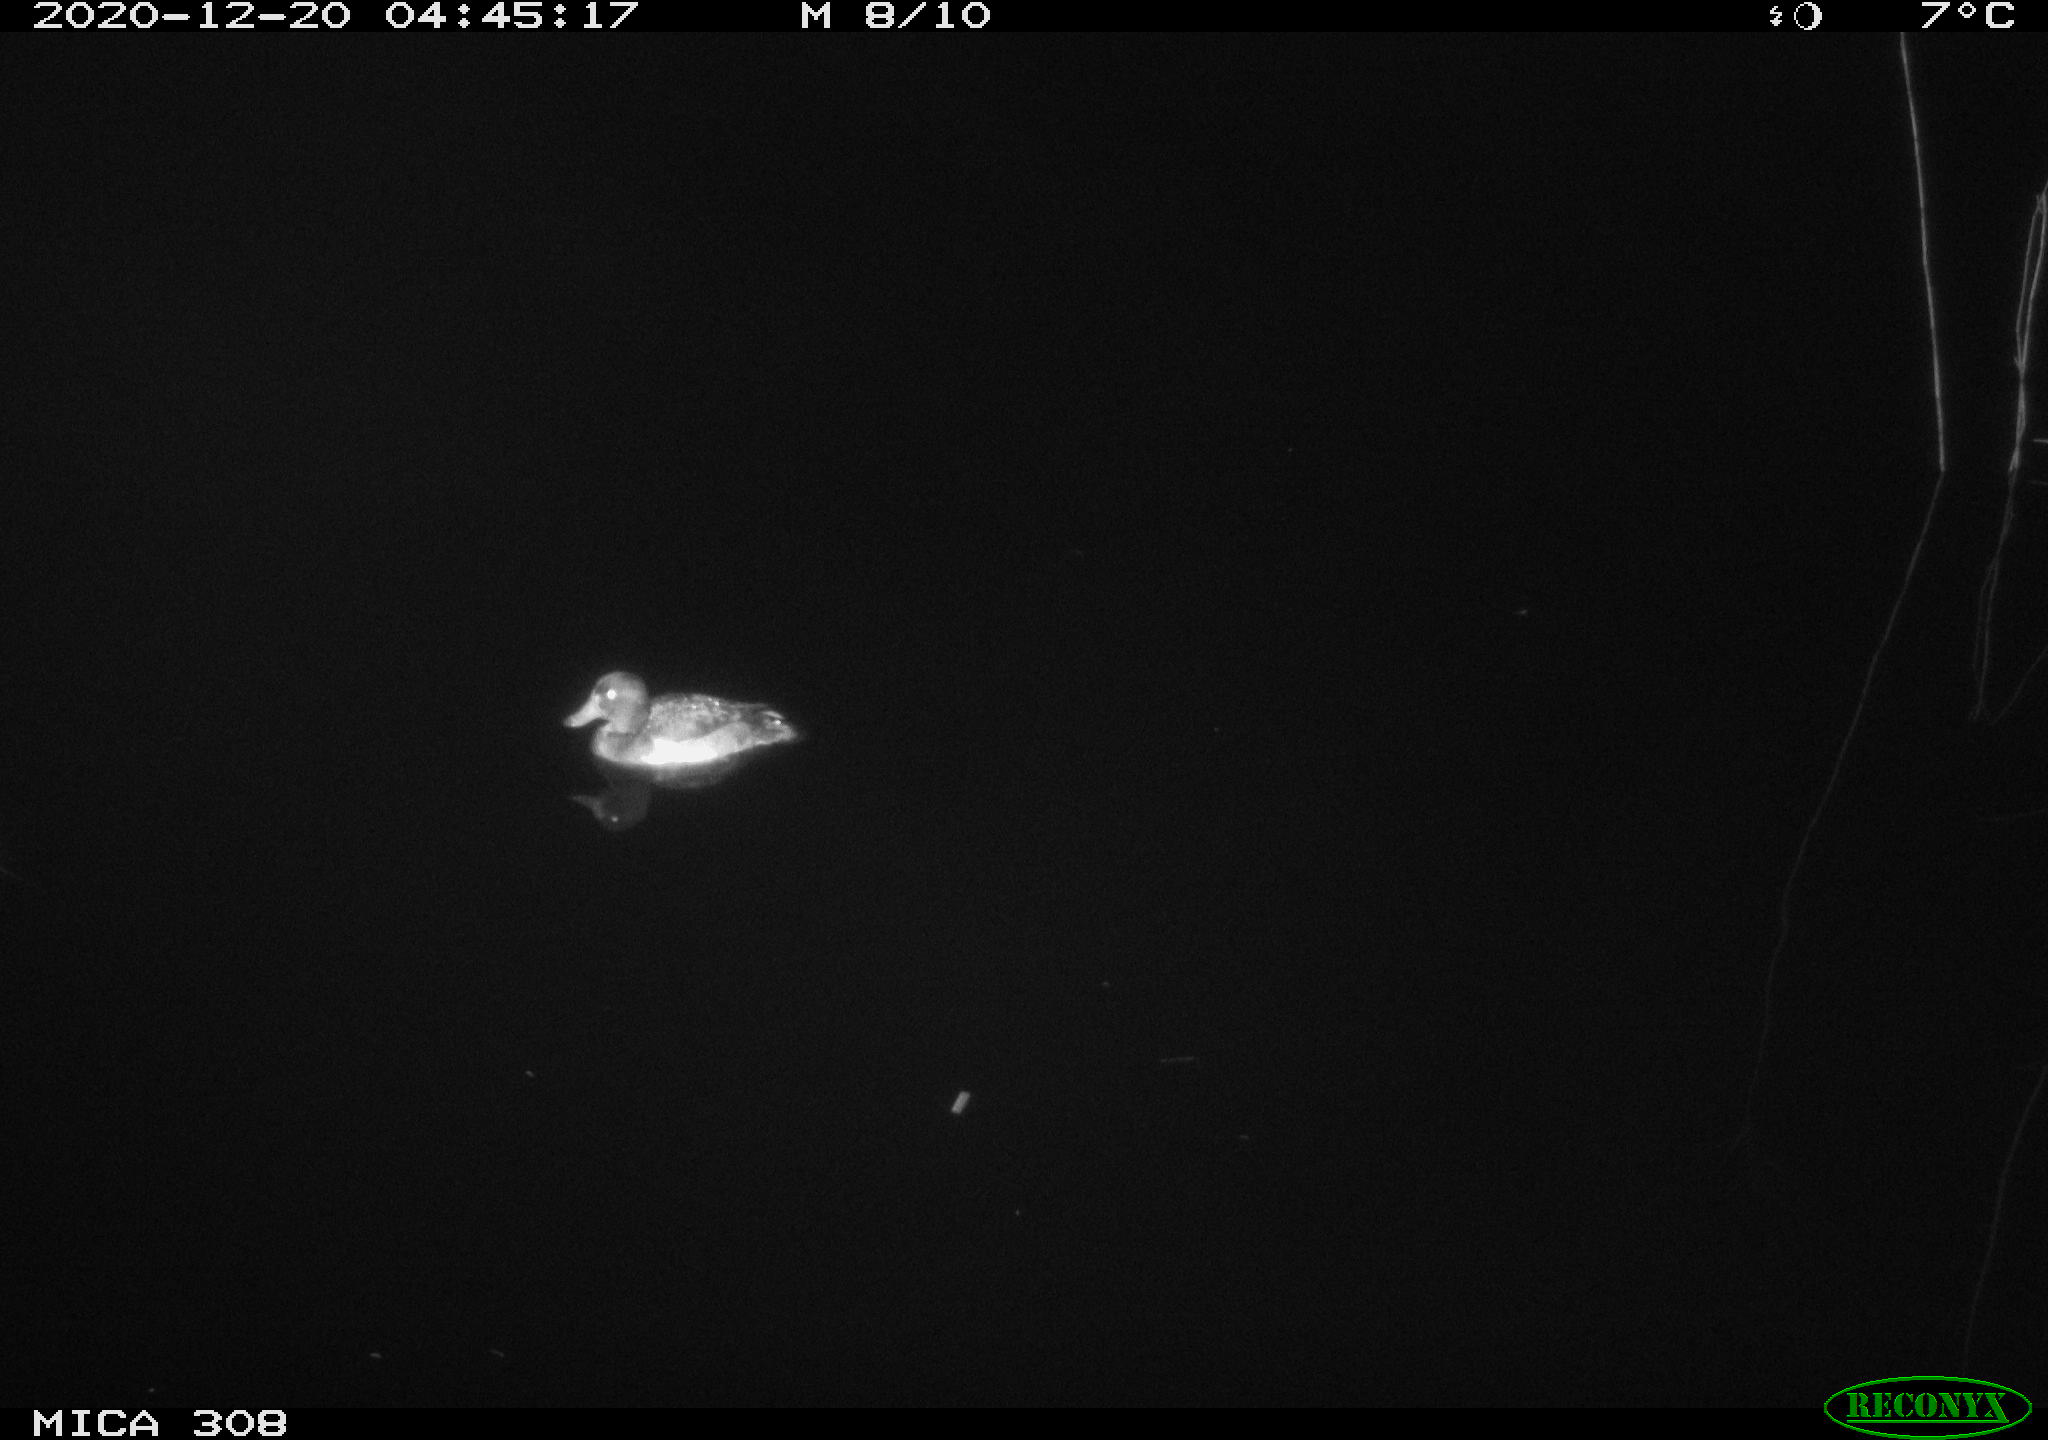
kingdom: Animalia
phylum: Chordata
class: Aves
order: Anseriformes
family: Anatidae
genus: Aythya
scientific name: Aythya fuligula
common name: Tufted duck
